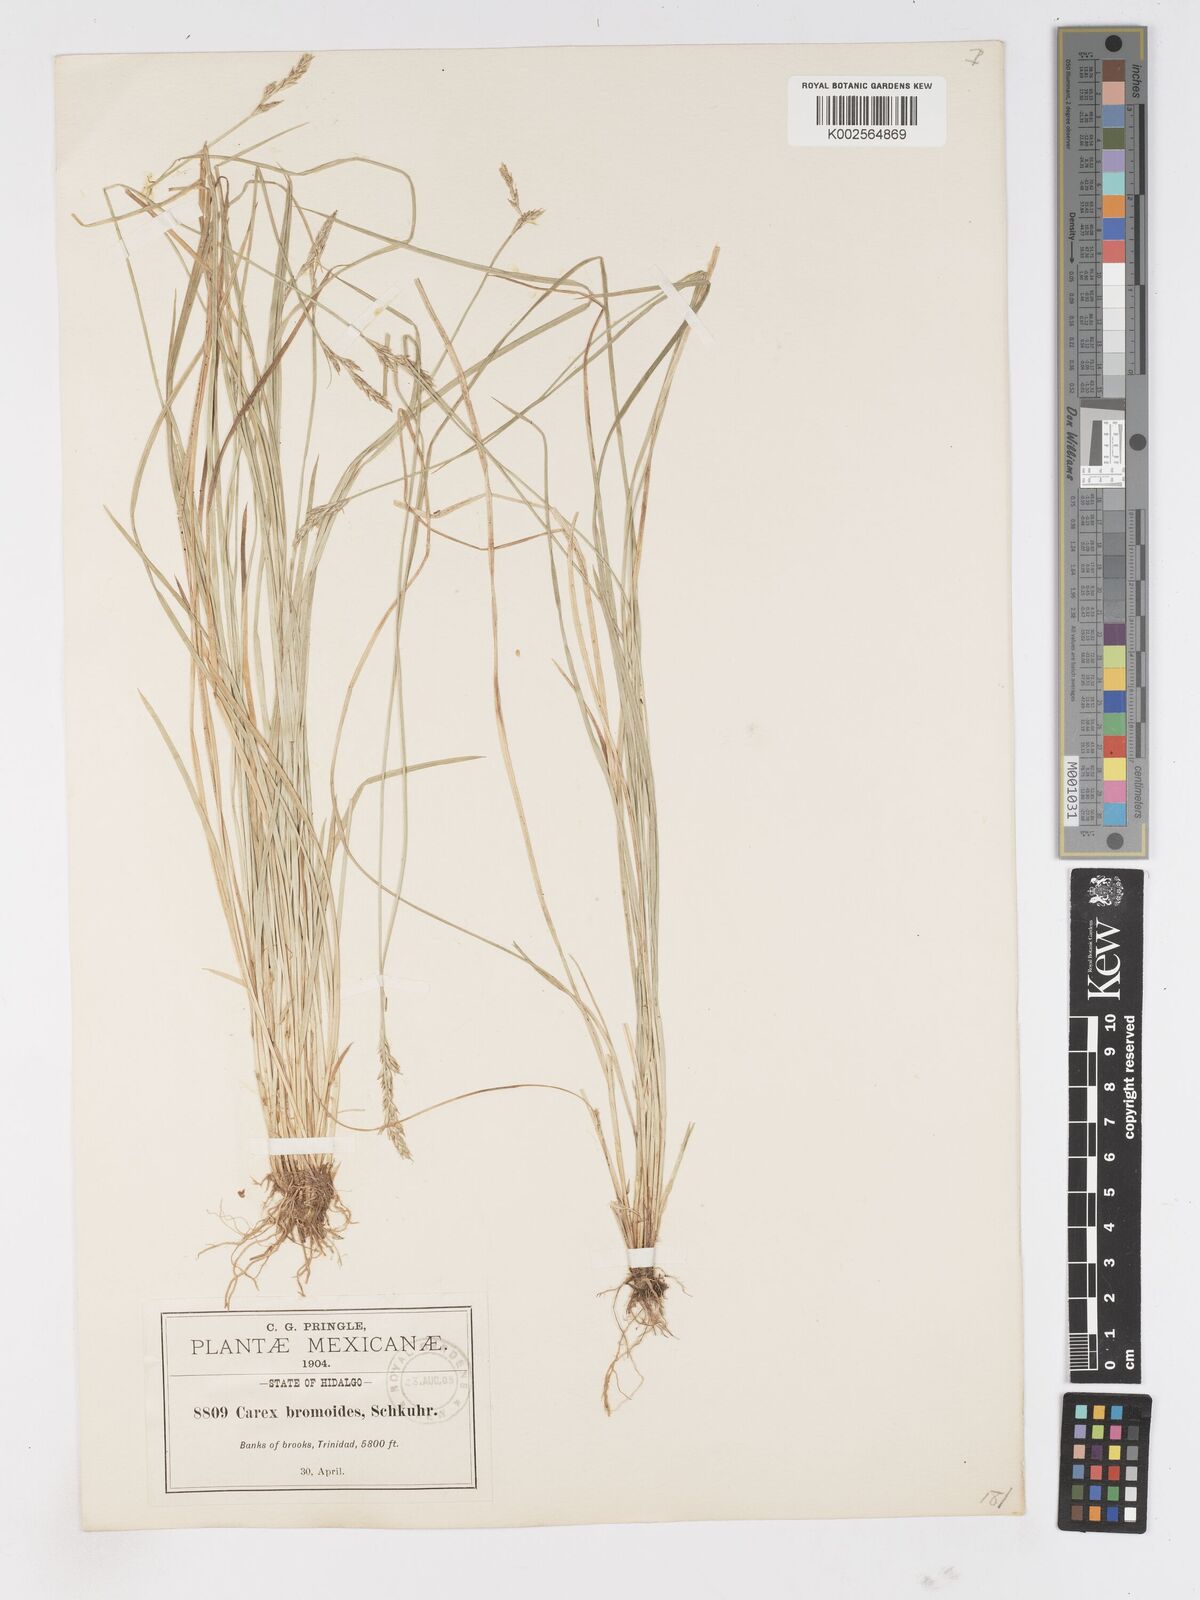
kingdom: Plantae
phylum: Tracheophyta
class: Liliopsida
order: Poales
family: Cyperaceae
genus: Carex
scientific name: Carex bromoides
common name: Brome hummock sedge
